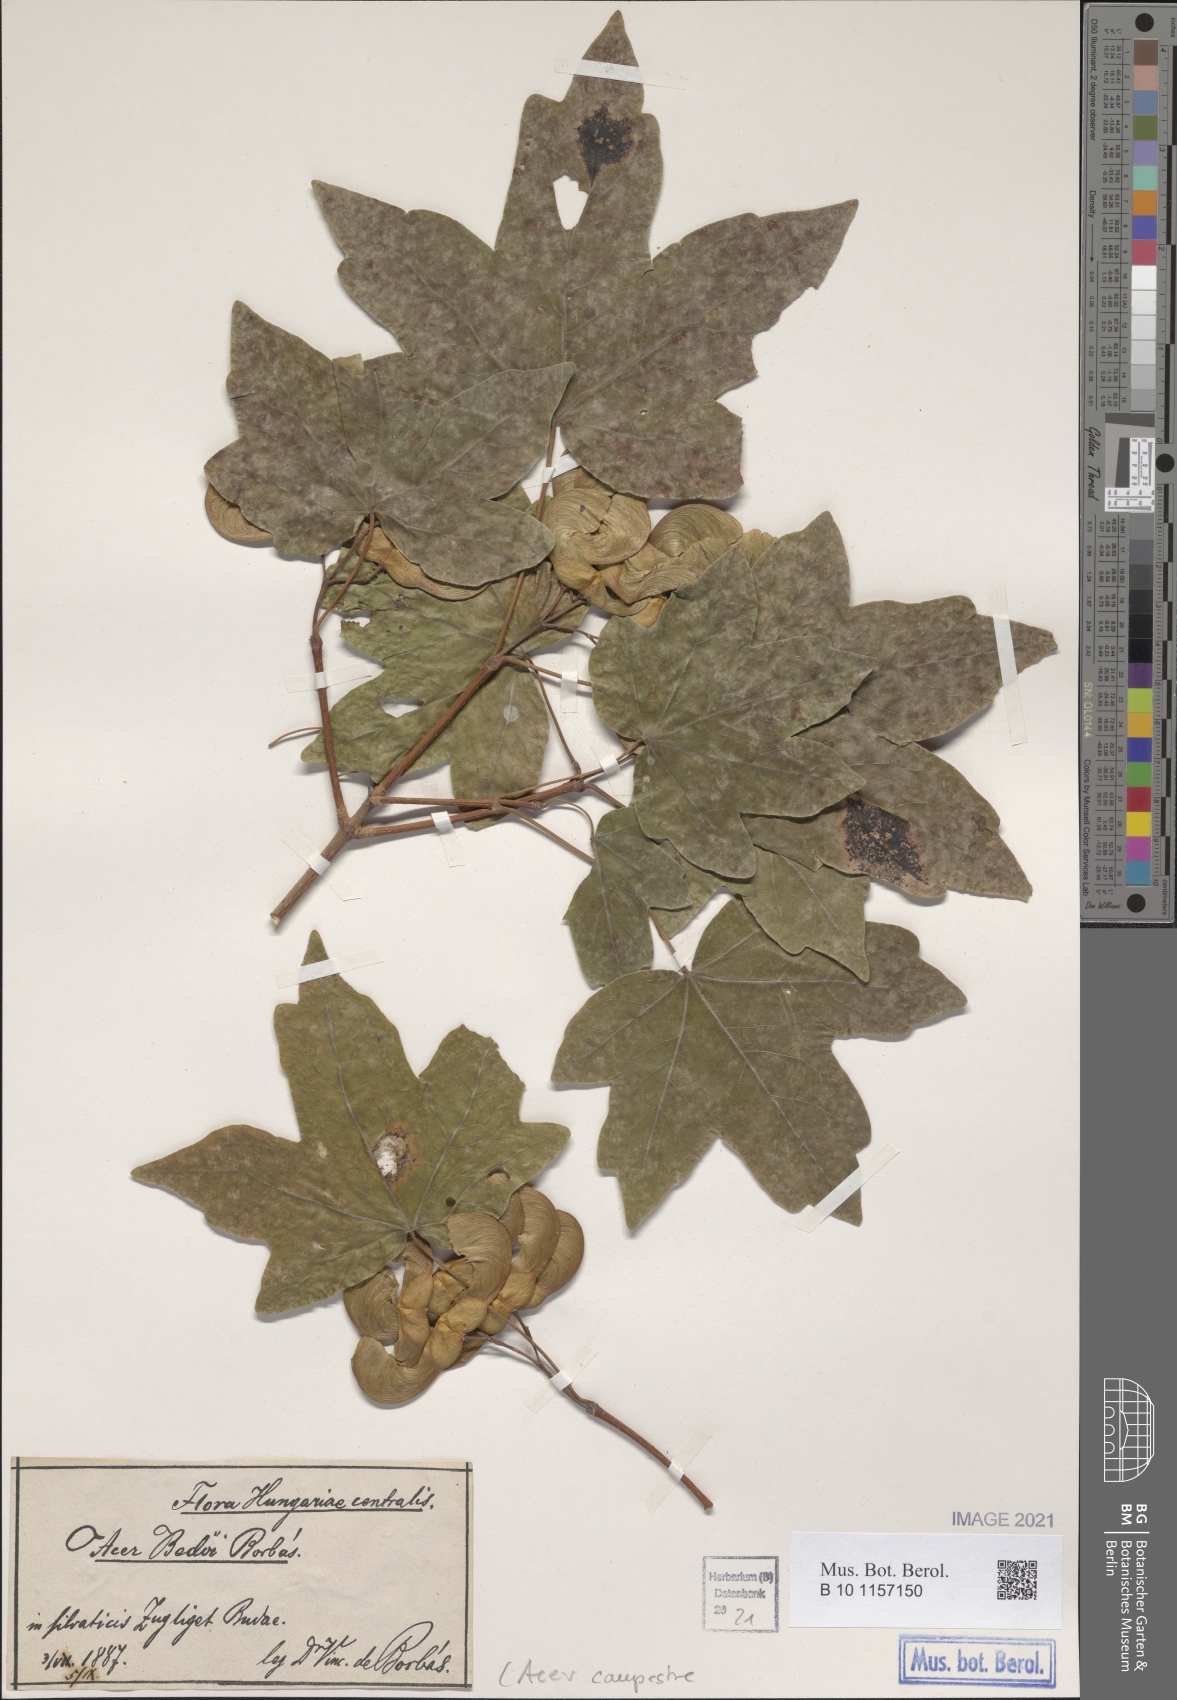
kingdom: Plantae
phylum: Tracheophyta
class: Magnoliopsida
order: Sapindales
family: Sapindaceae
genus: Acer
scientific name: Acer campestre
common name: Field maple
